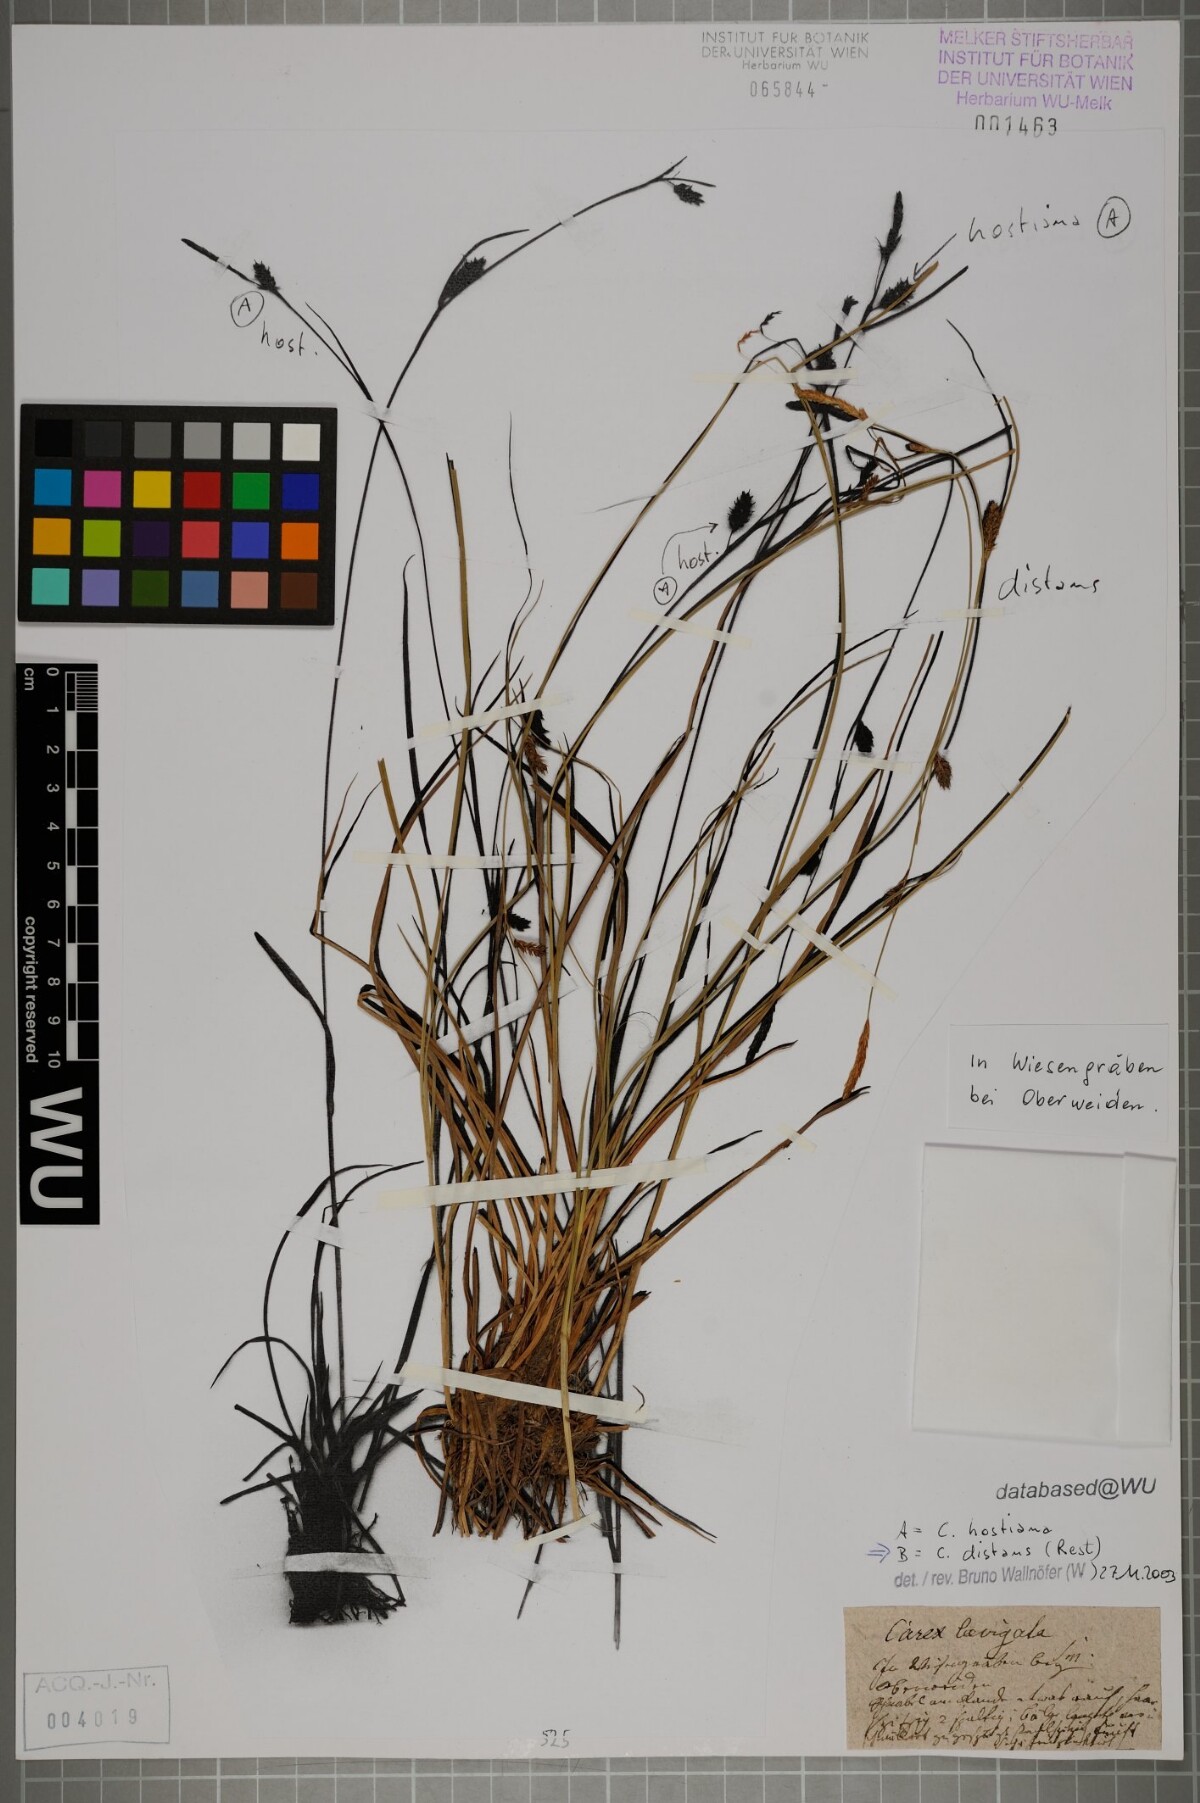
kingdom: Plantae
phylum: Tracheophyta
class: Liliopsida
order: Poales
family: Cyperaceae
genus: Carex
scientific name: Carex distans
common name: Distant sedge
